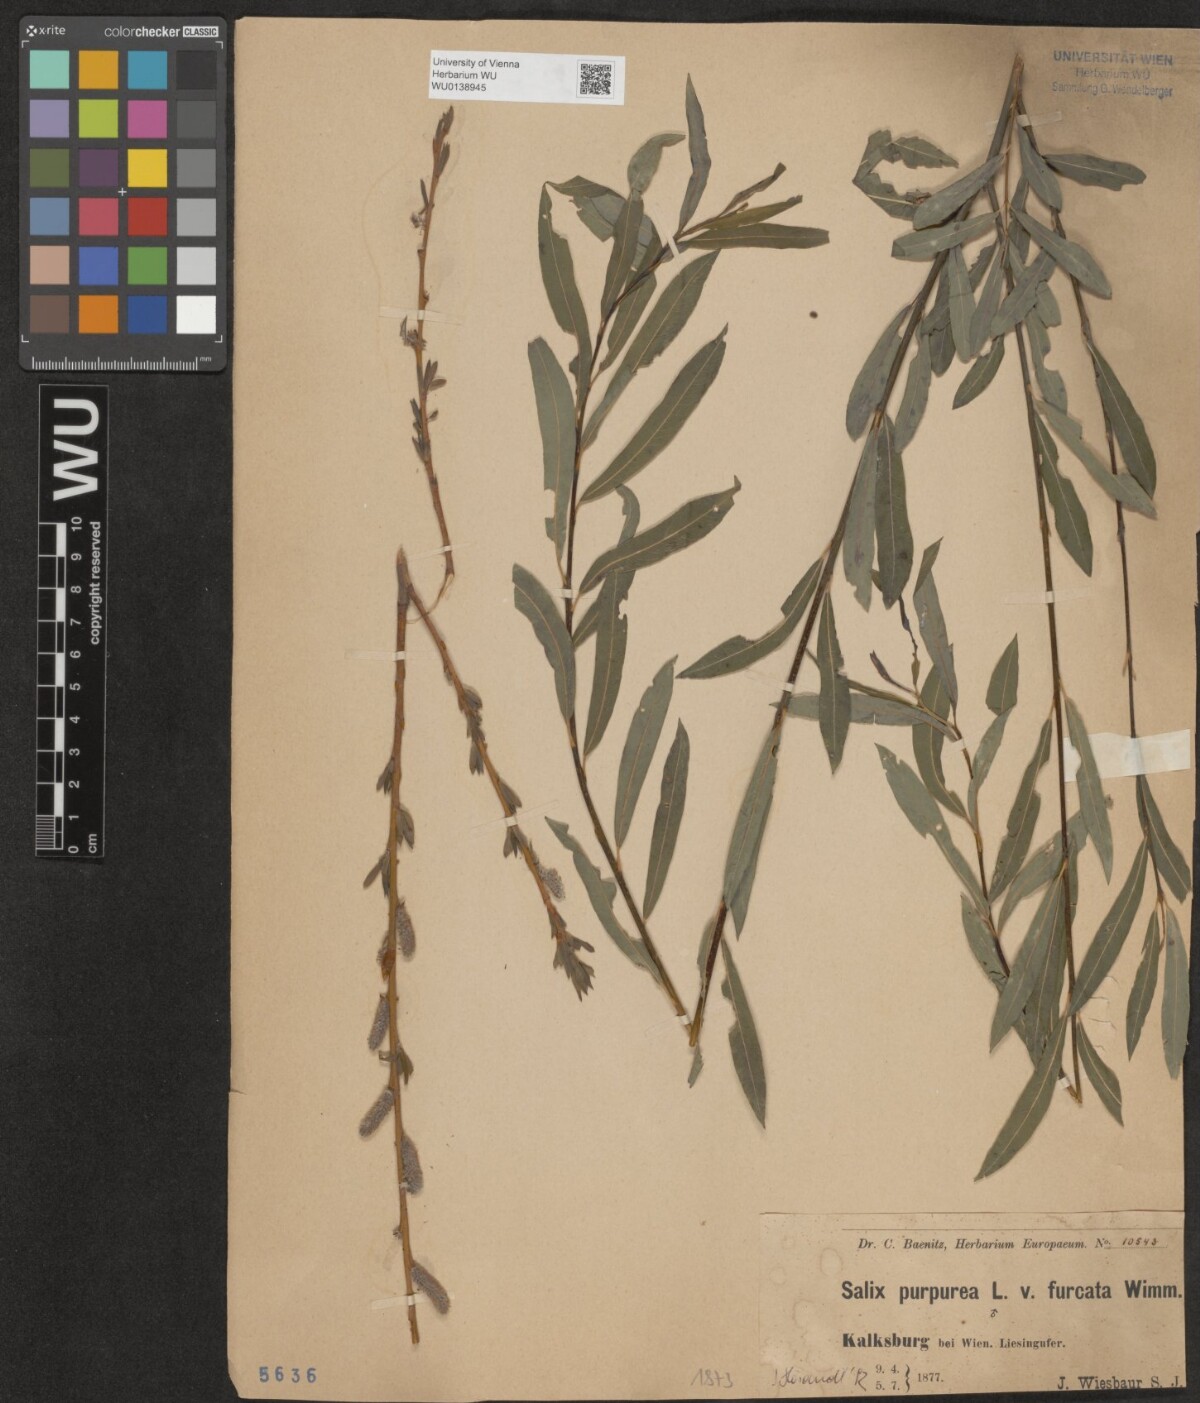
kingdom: Plantae
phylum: Tracheophyta
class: Magnoliopsida
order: Malpighiales
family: Salicaceae
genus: Salix
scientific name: Salix purpurea
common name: Purple willow
